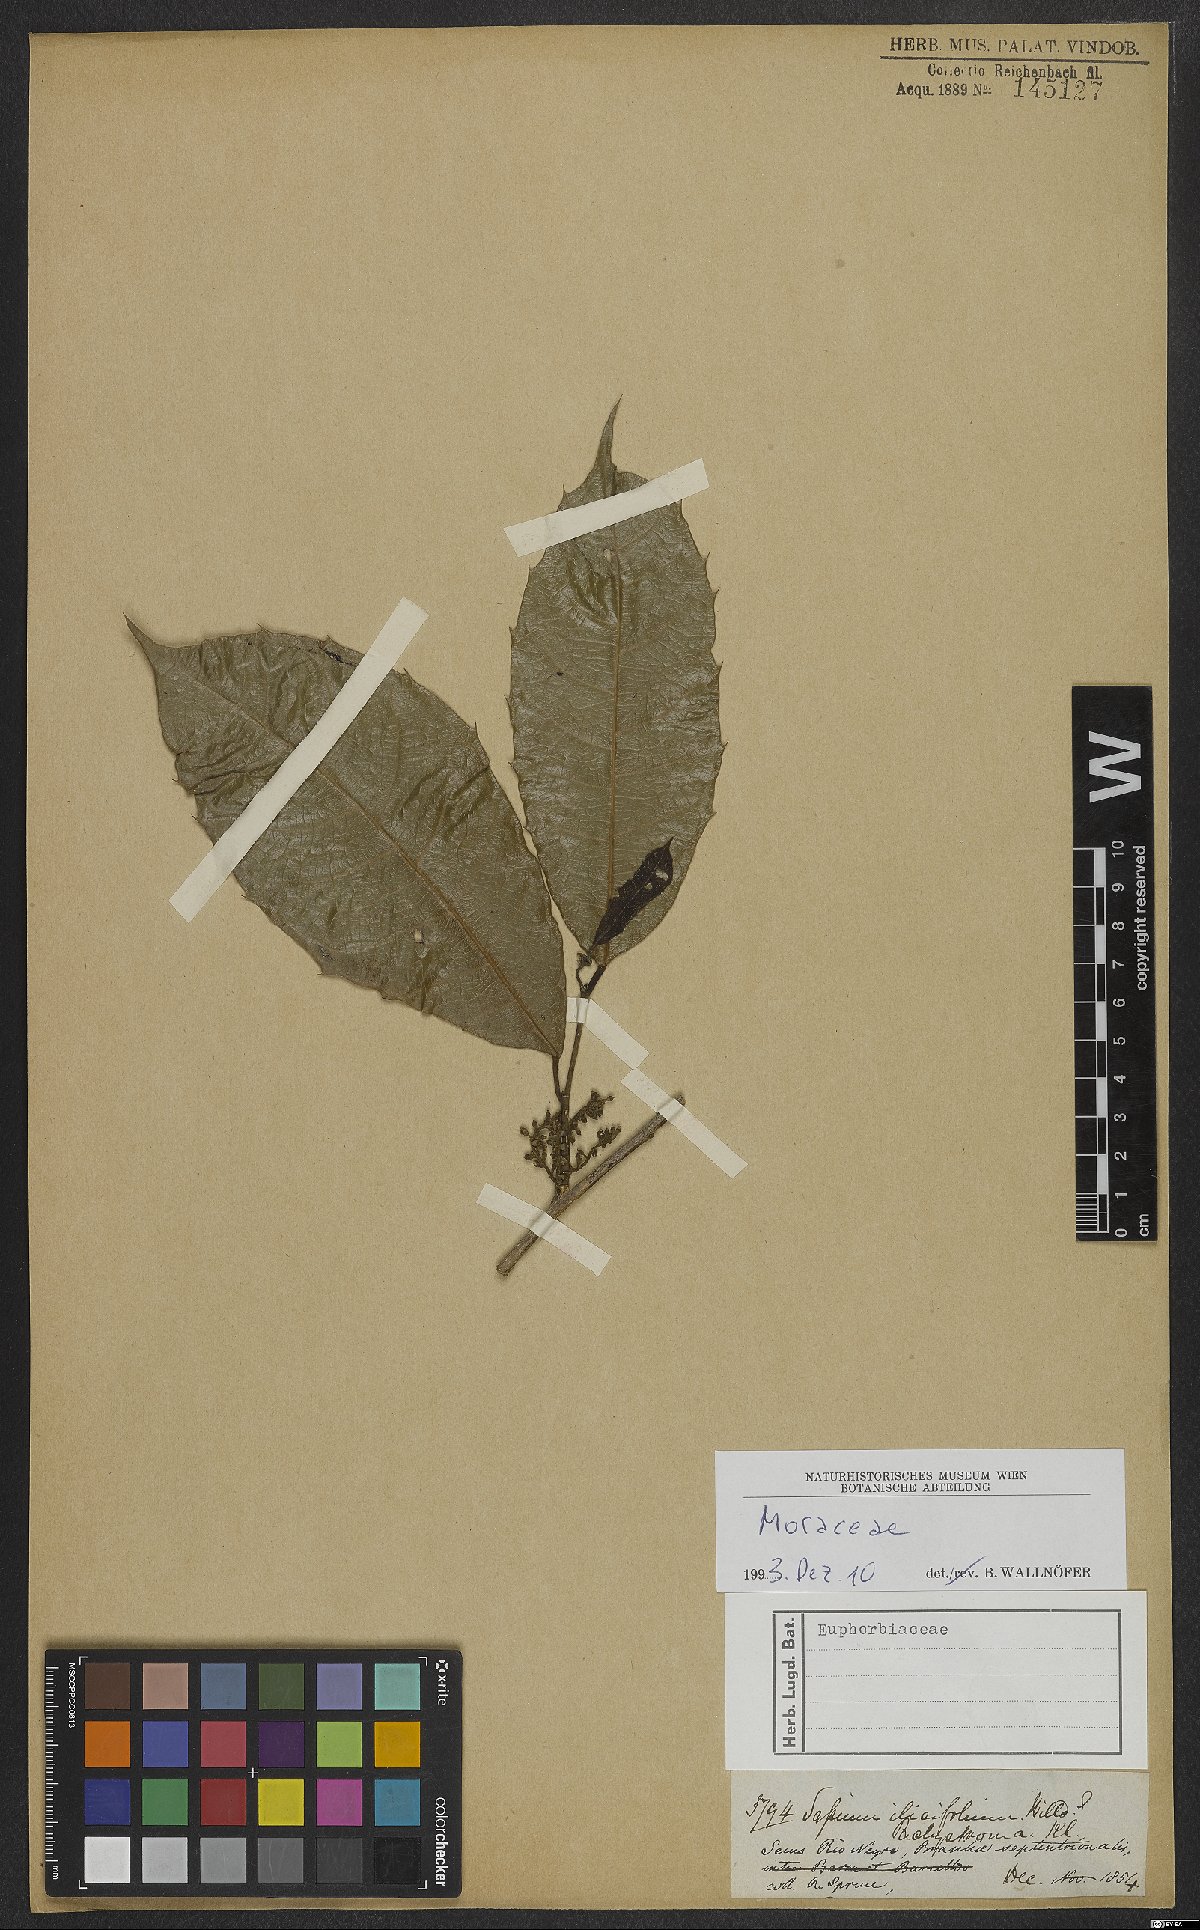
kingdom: Plantae
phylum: Tracheophyta
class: Magnoliopsida
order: Rosales
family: Moraceae
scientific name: Moraceae
